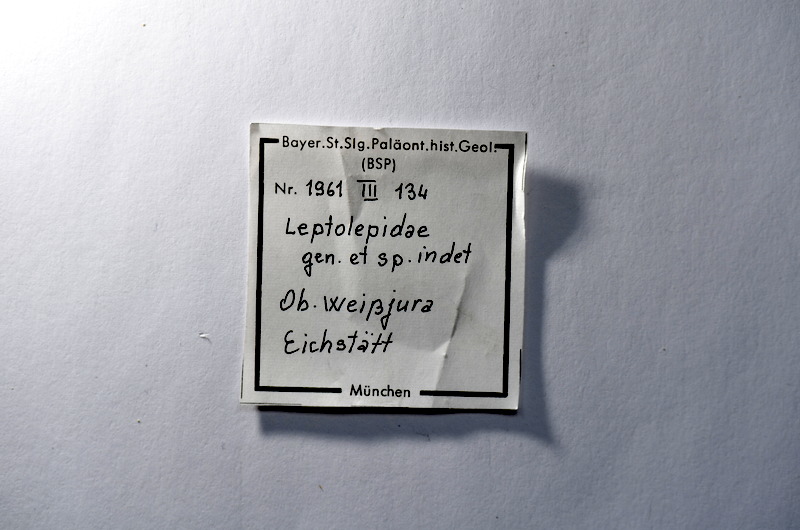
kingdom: Animalia
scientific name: Animalia
